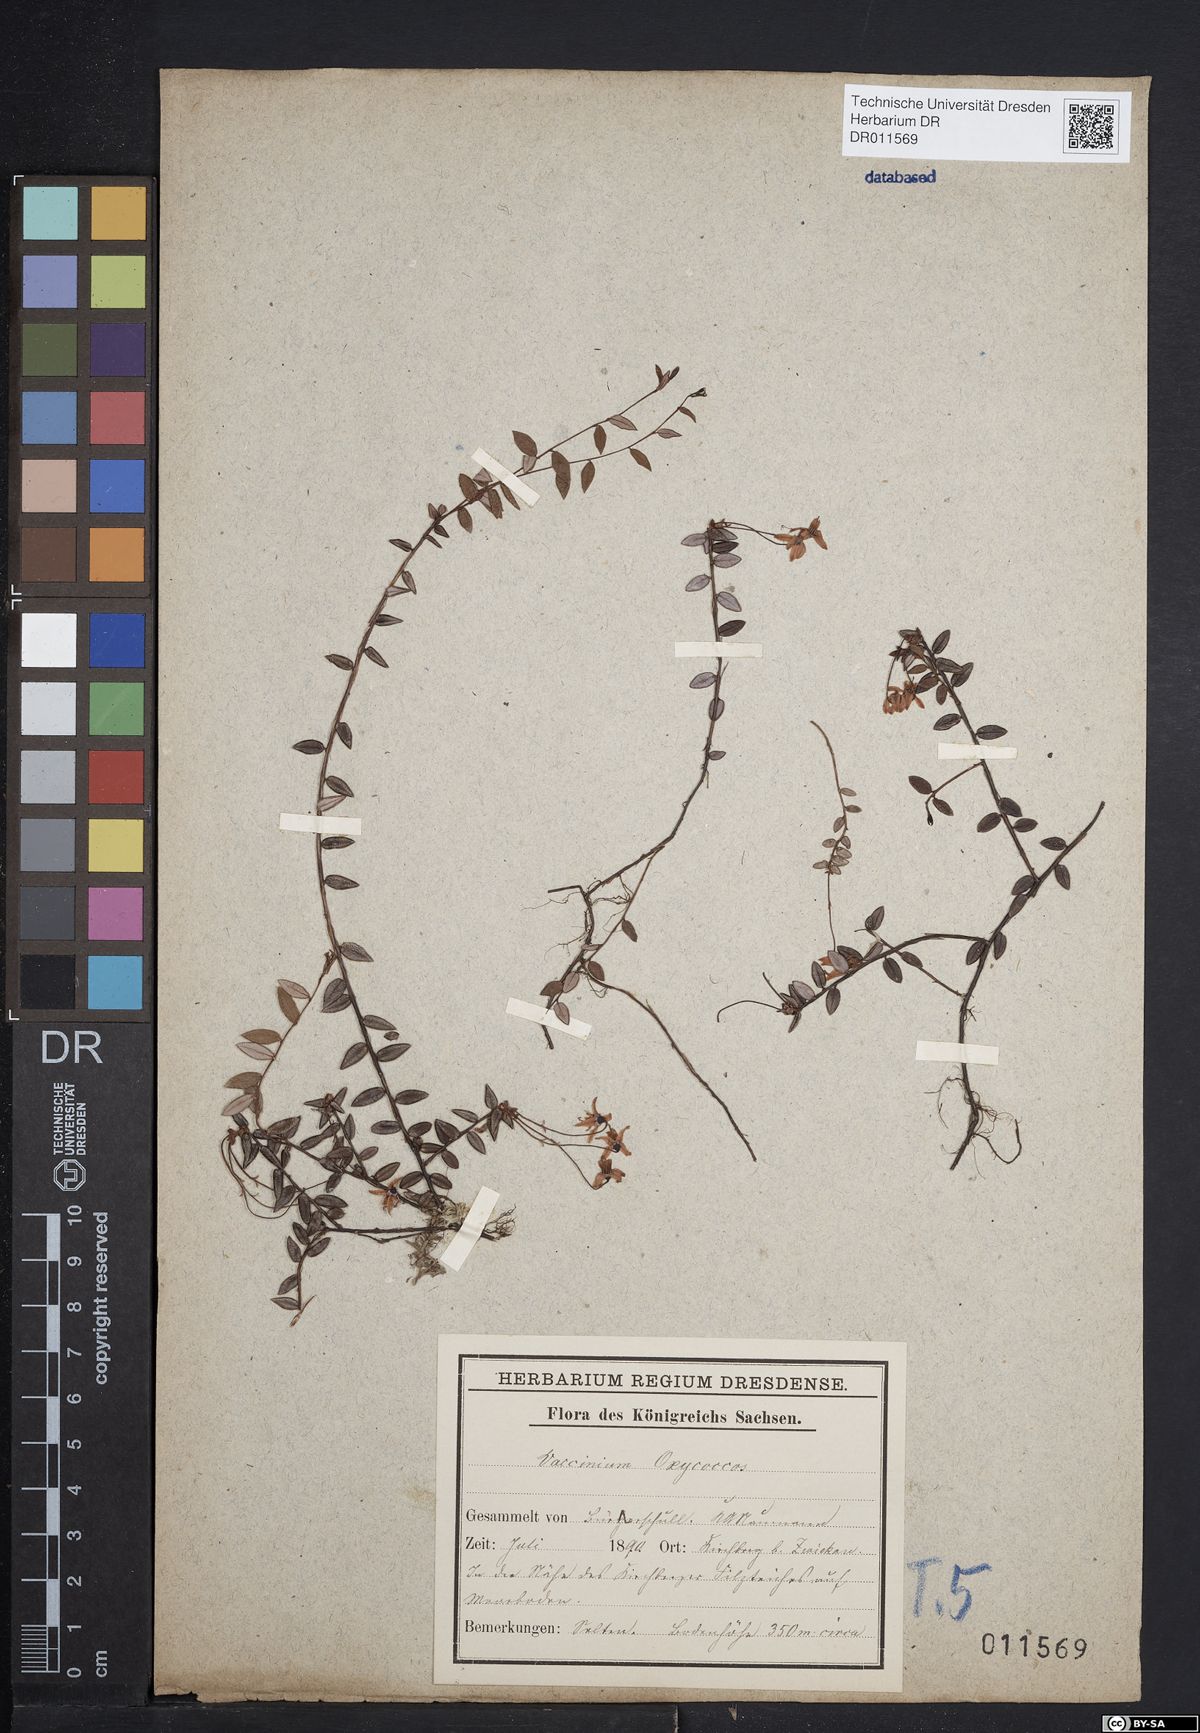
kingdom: Plantae
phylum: Tracheophyta
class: Magnoliopsida
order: Ericales
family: Ericaceae
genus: Vaccinium
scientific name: Vaccinium oxycoccos
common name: Cranberry
